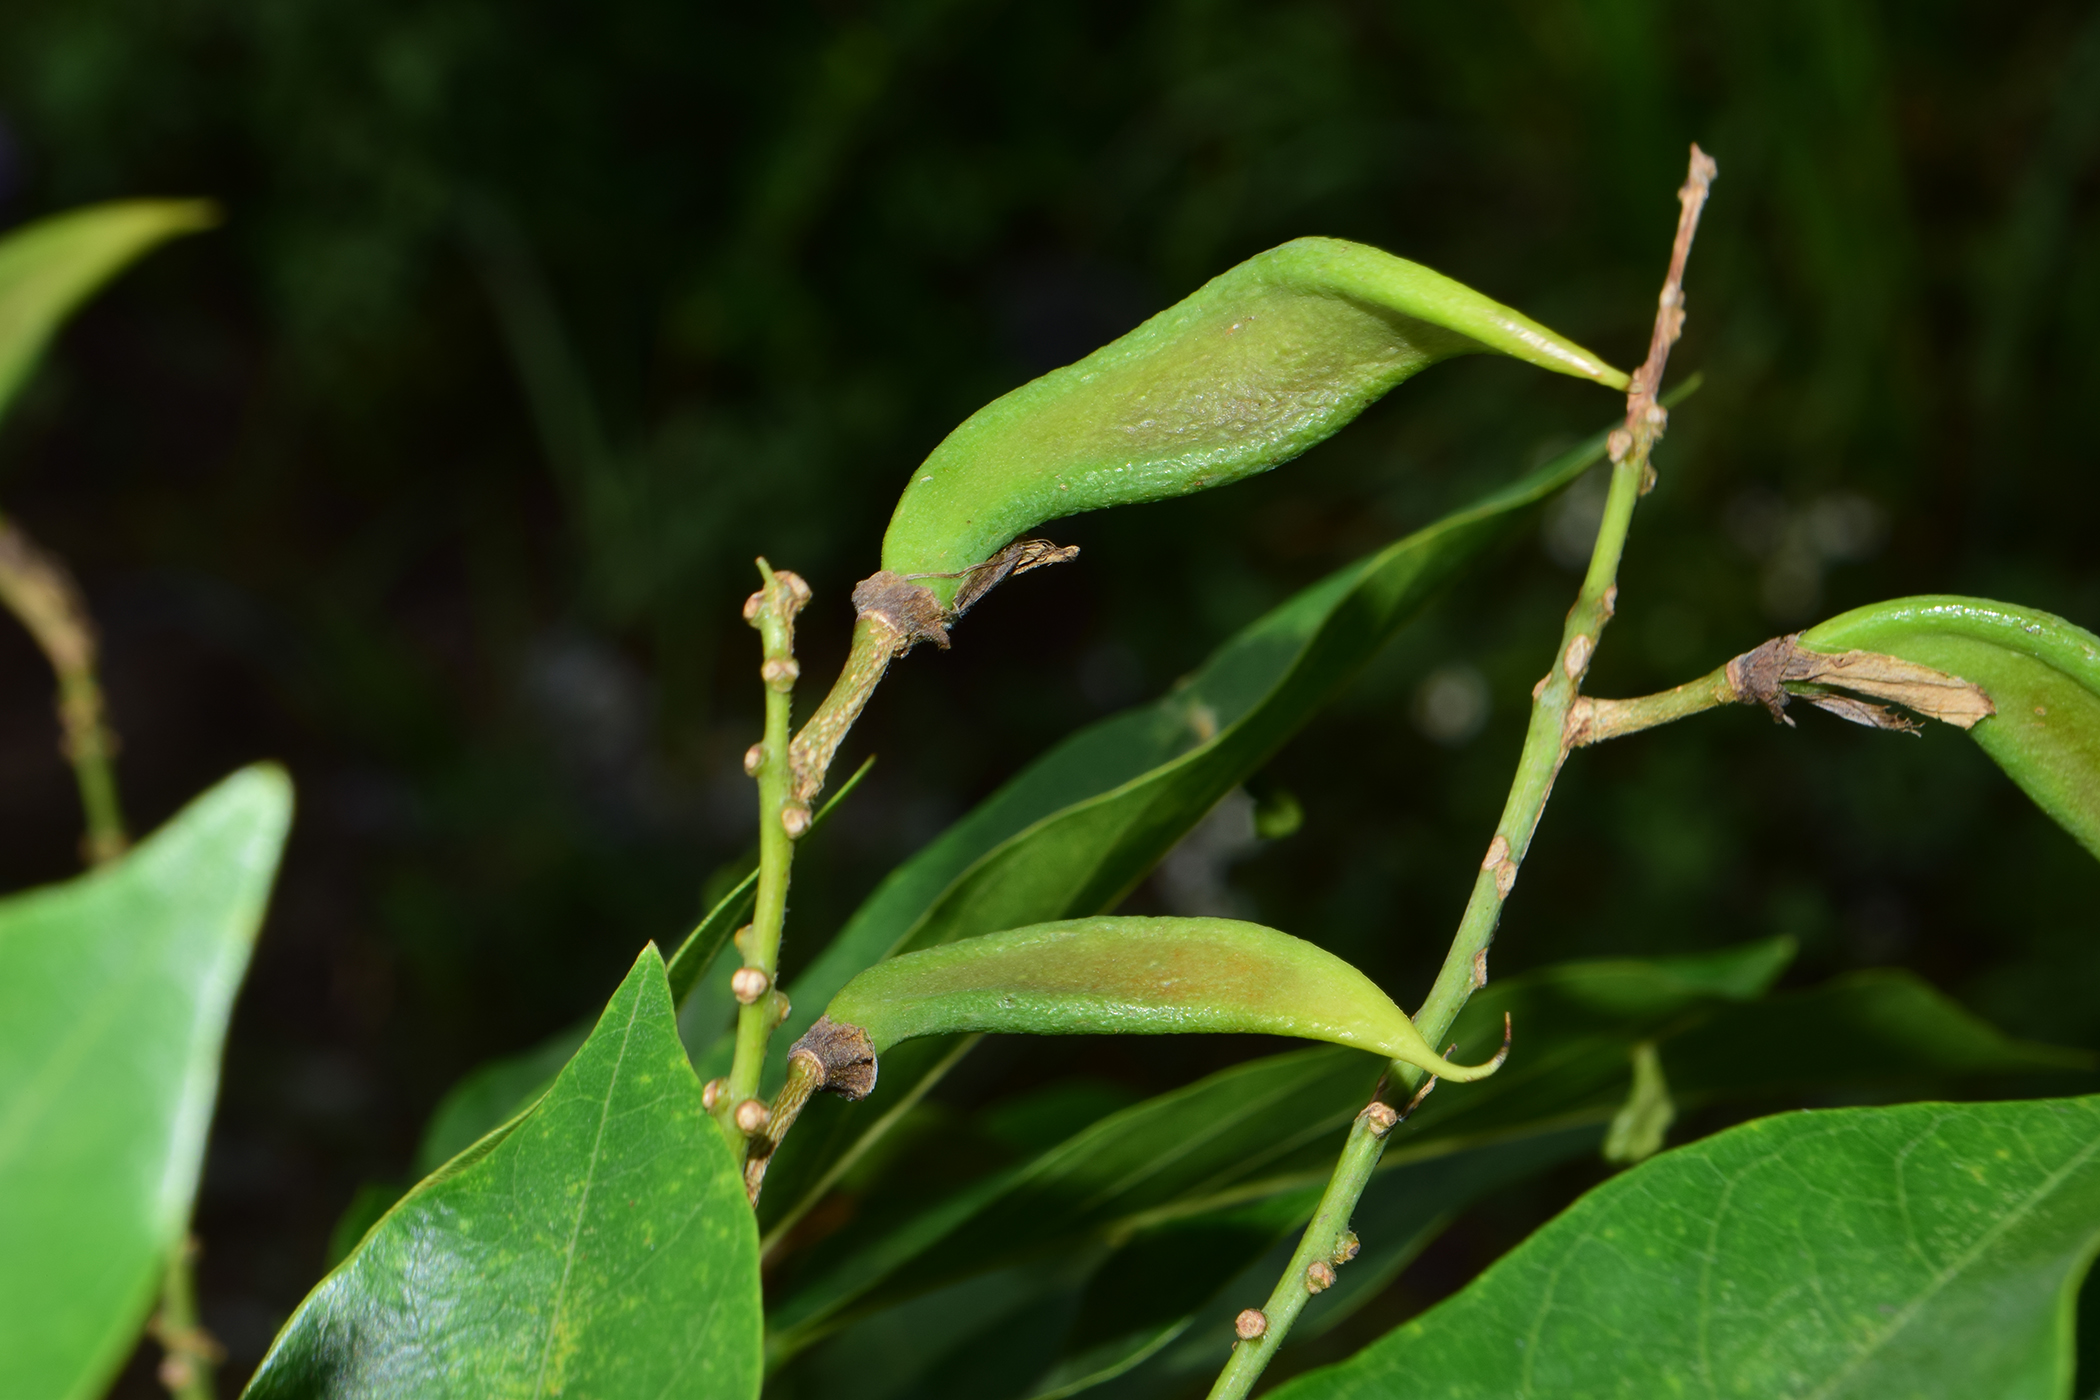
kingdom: Plantae
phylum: Tracheophyta
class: Magnoliopsida
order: Fabales
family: Fabaceae
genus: Millettia
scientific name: Millettia borneensis
